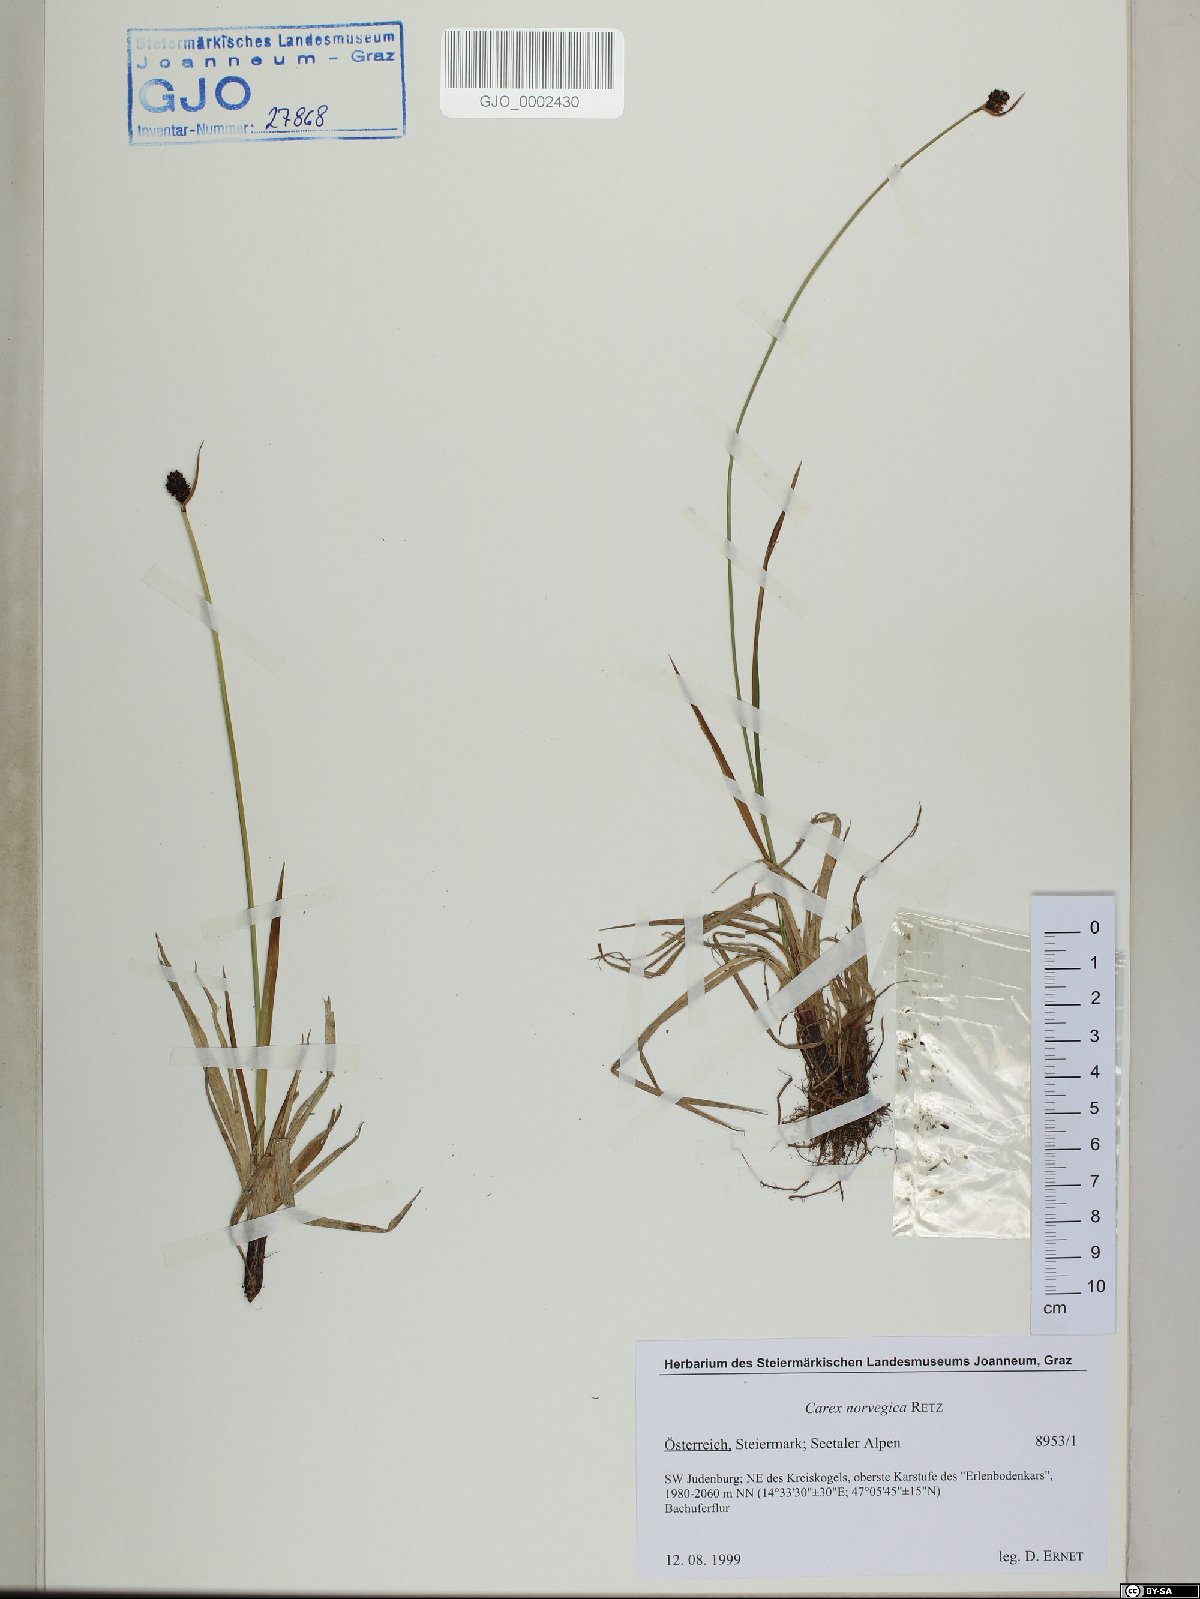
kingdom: Plantae
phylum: Tracheophyta
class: Liliopsida
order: Poales
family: Cyperaceae
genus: Carex
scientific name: Carex norvegica
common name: Close-headed alpine-sedge
